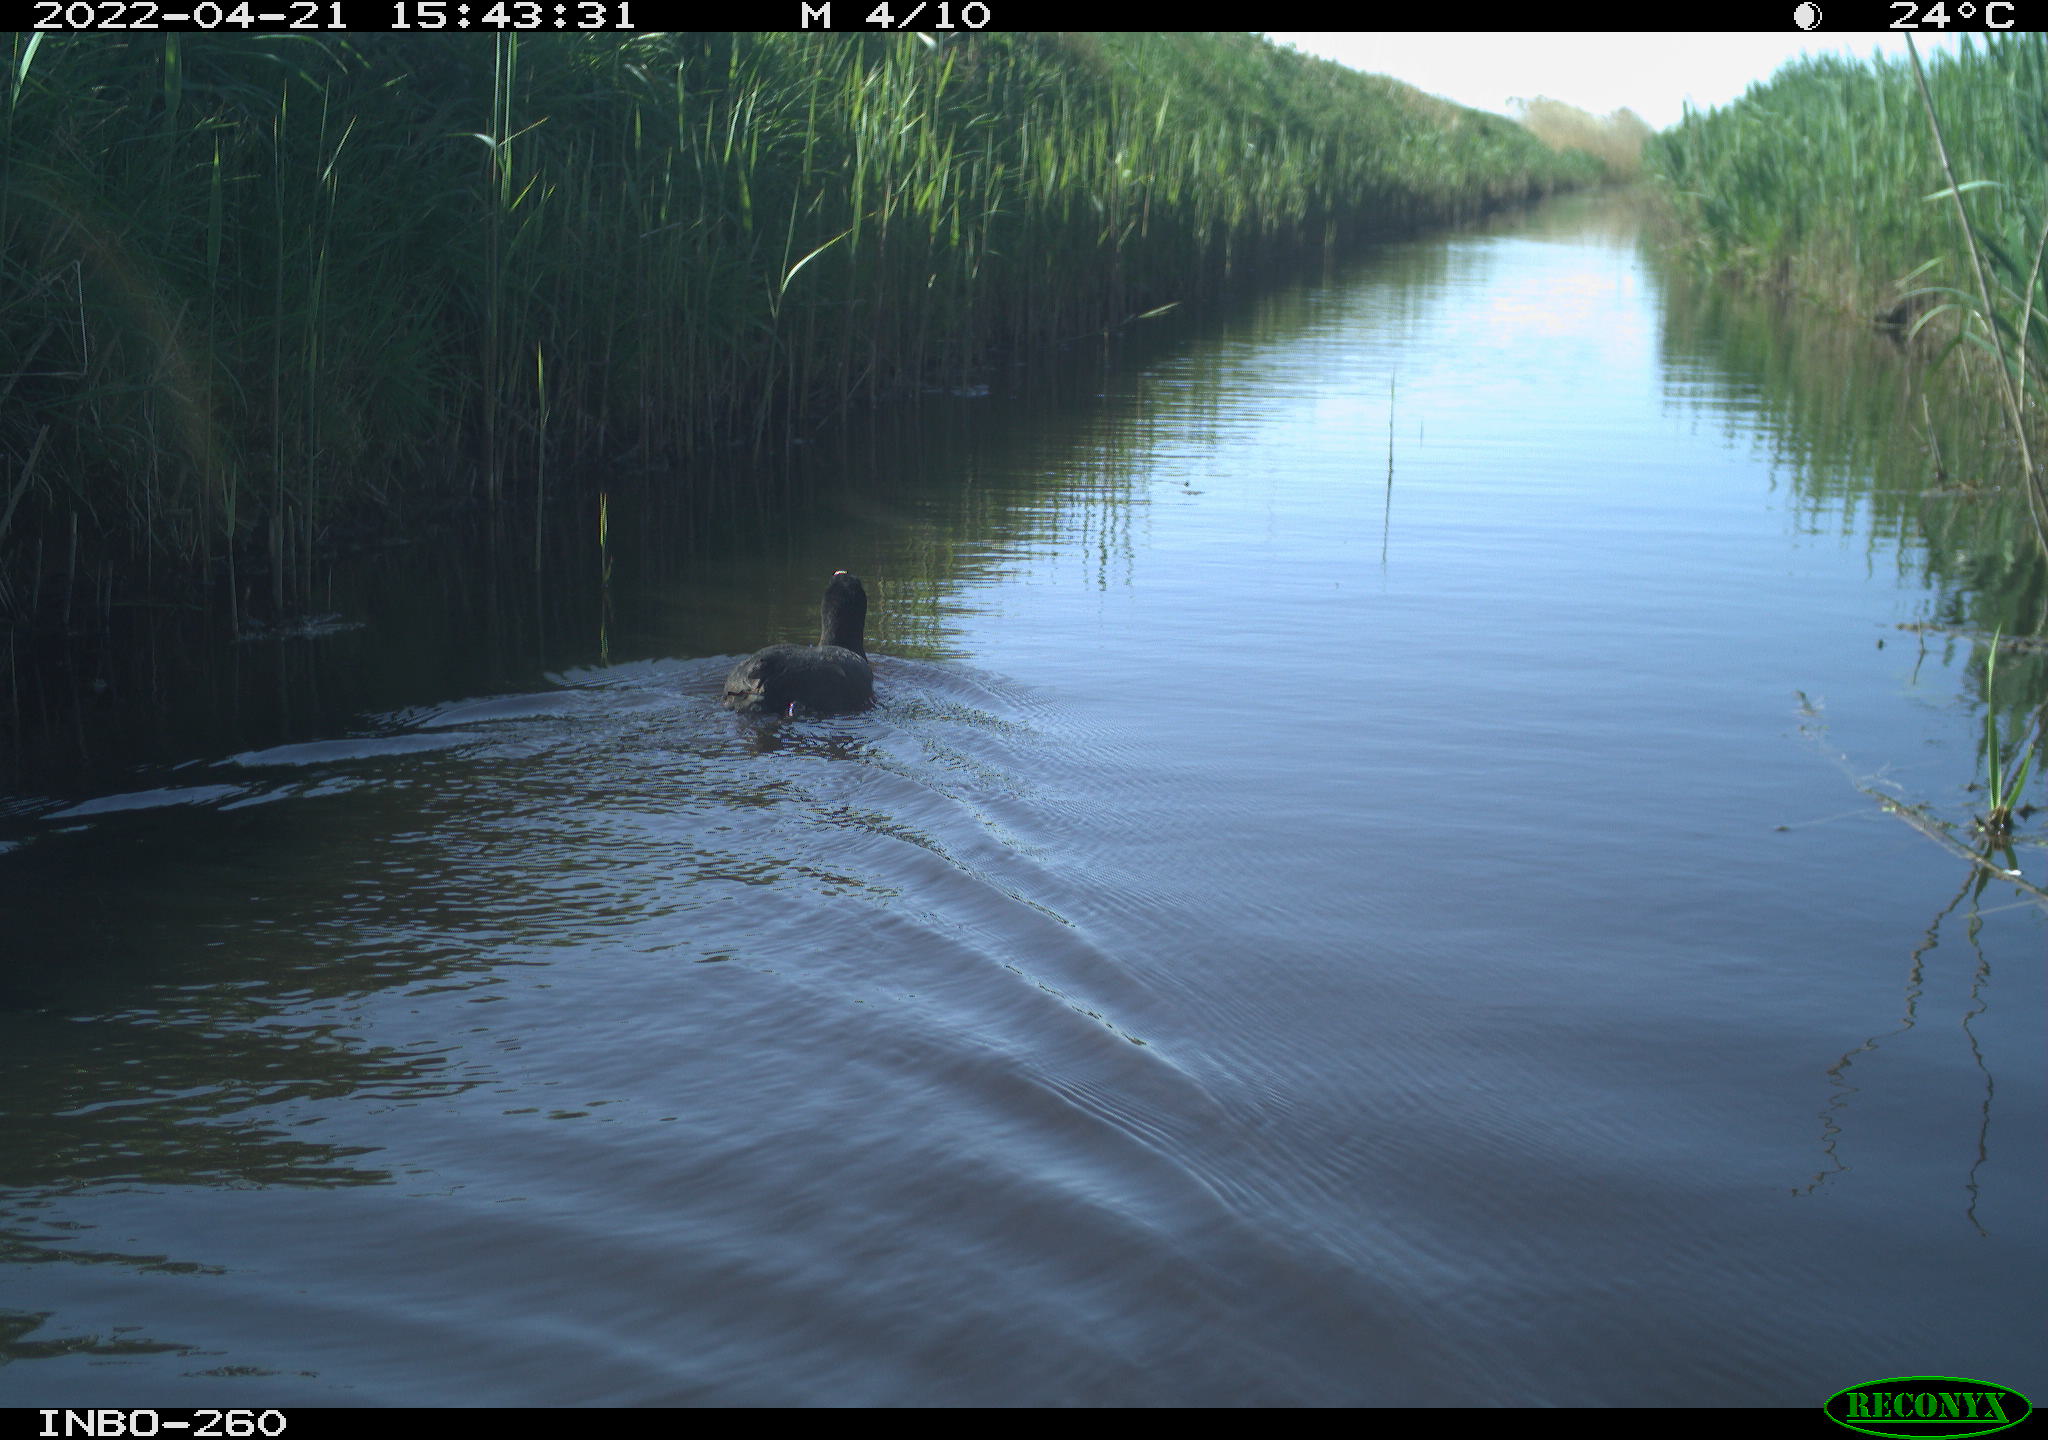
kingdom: Animalia
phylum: Chordata
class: Aves
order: Gruiformes
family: Rallidae
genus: Fulica
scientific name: Fulica atra
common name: Eurasian coot
